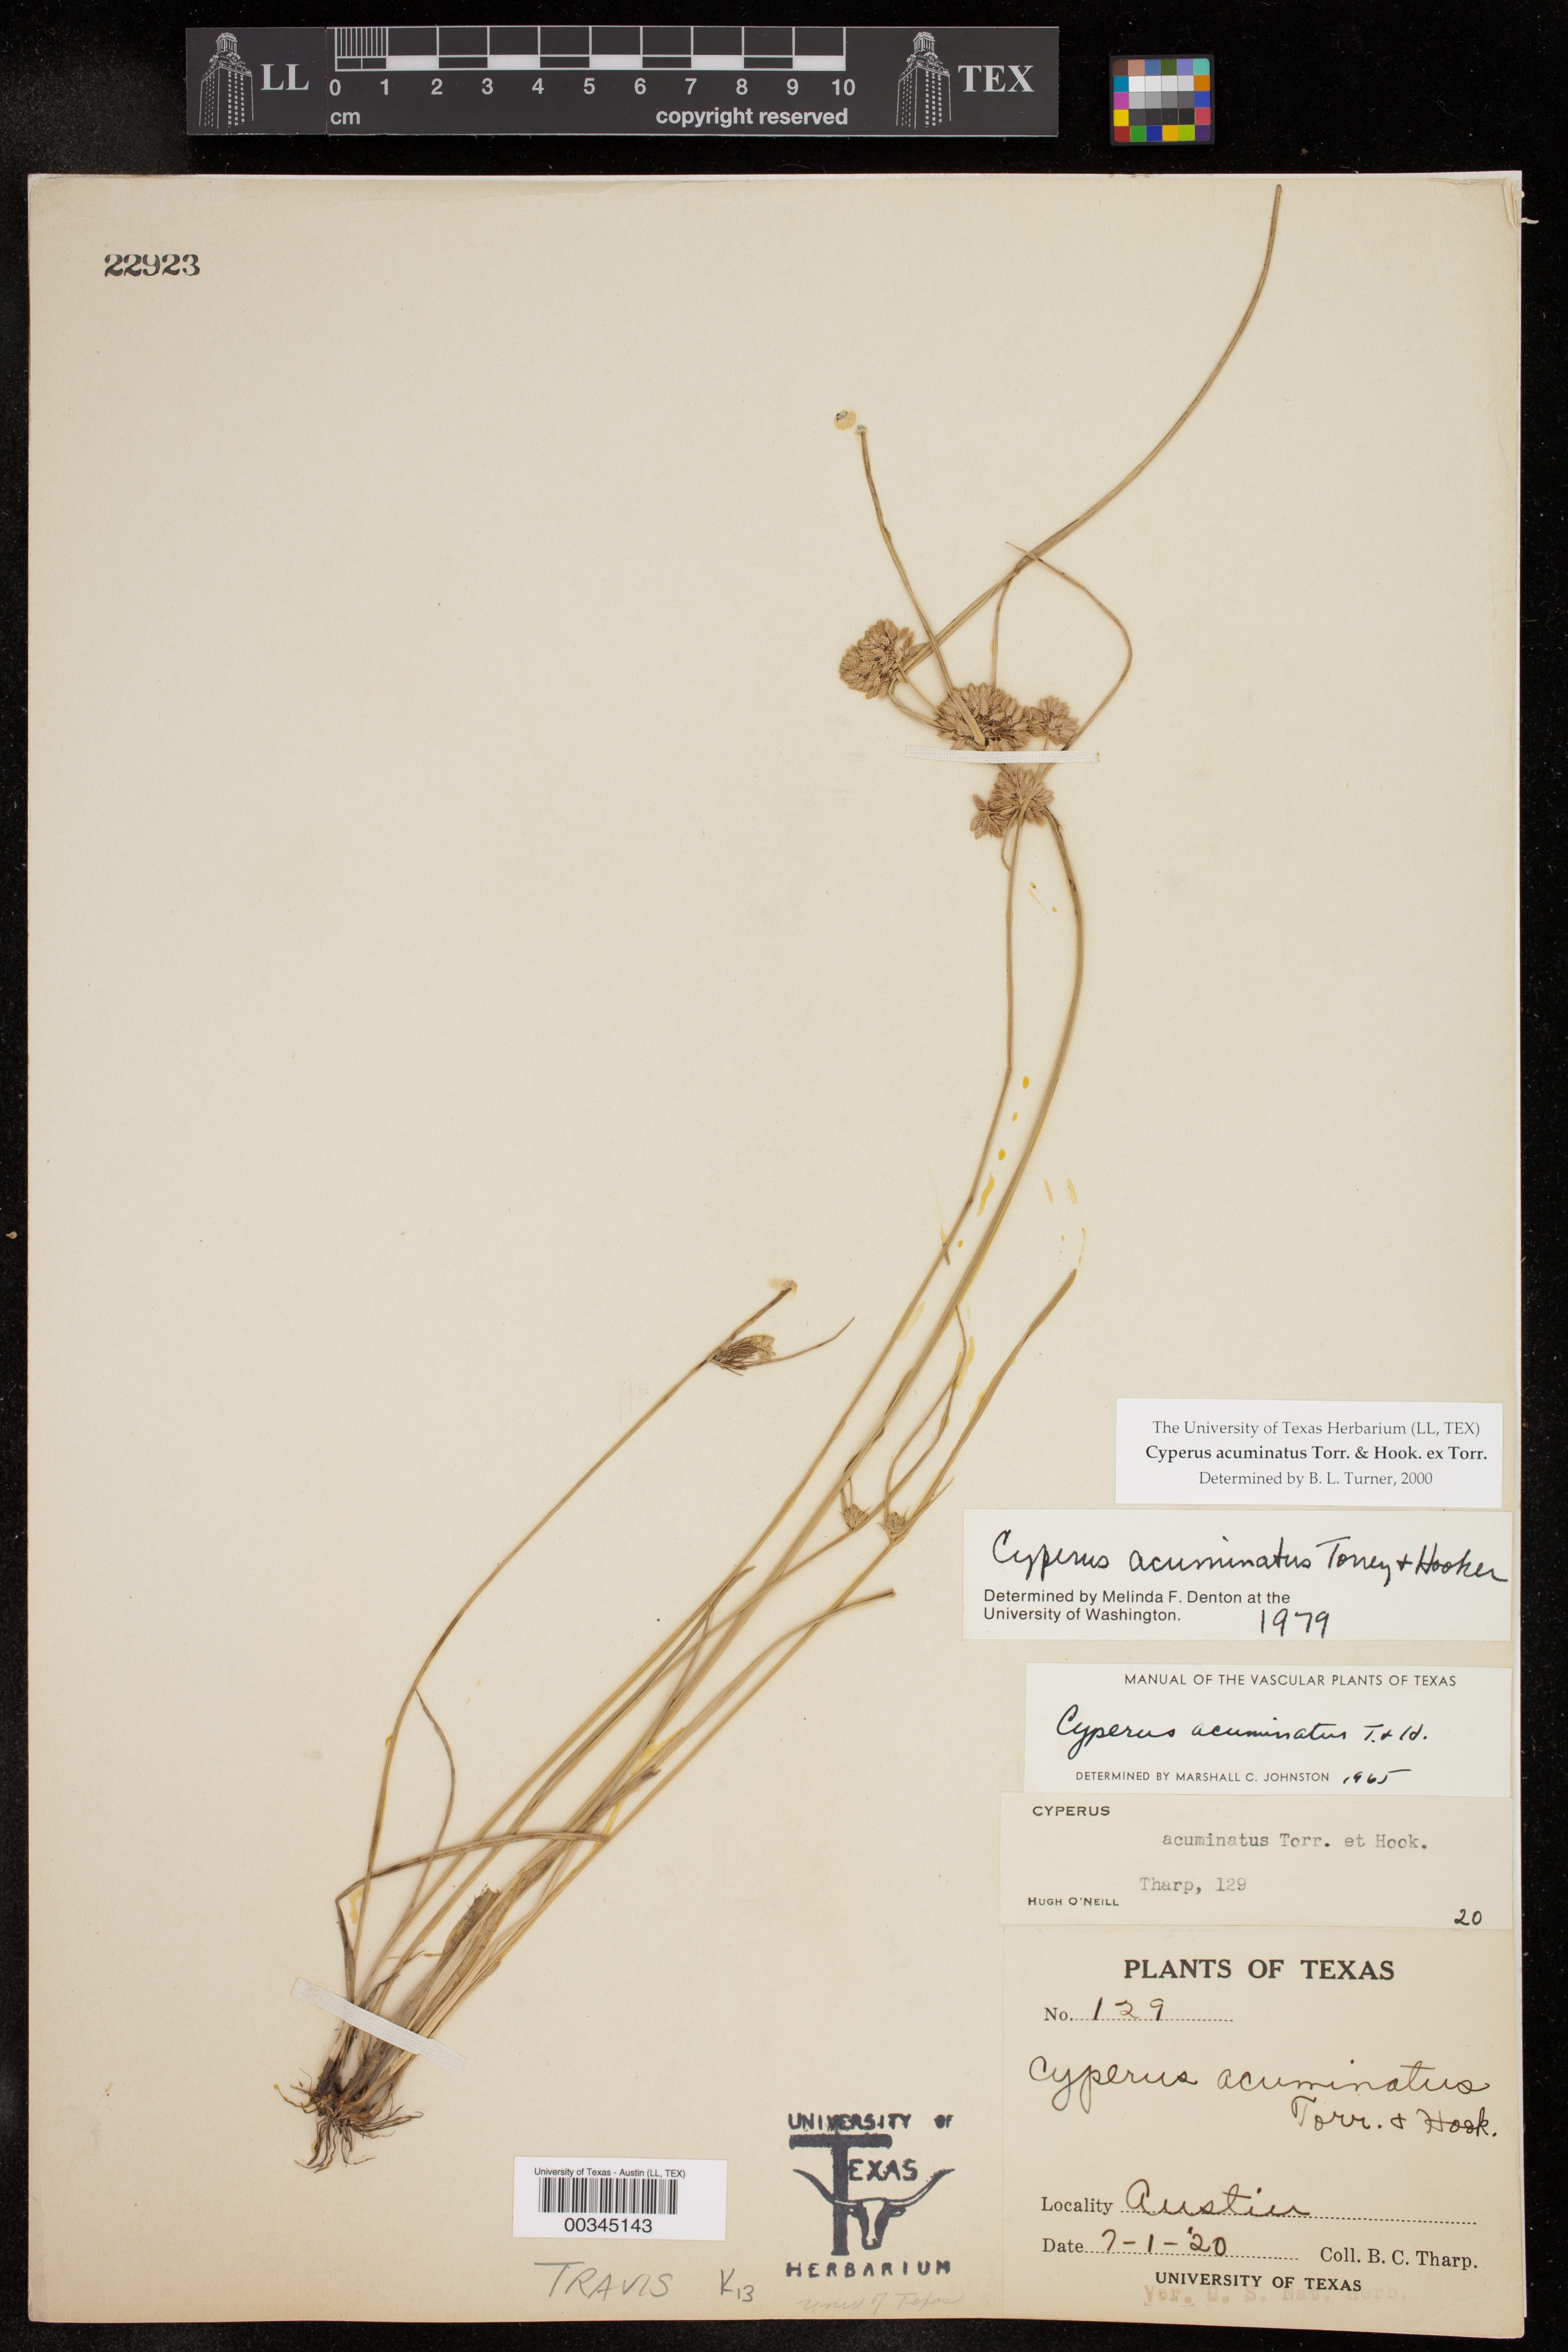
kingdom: Plantae
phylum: Tracheophyta
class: Liliopsida
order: Poales
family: Cyperaceae
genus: Cyperus
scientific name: Cyperus acuminatus
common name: Short-pointed cyperus
